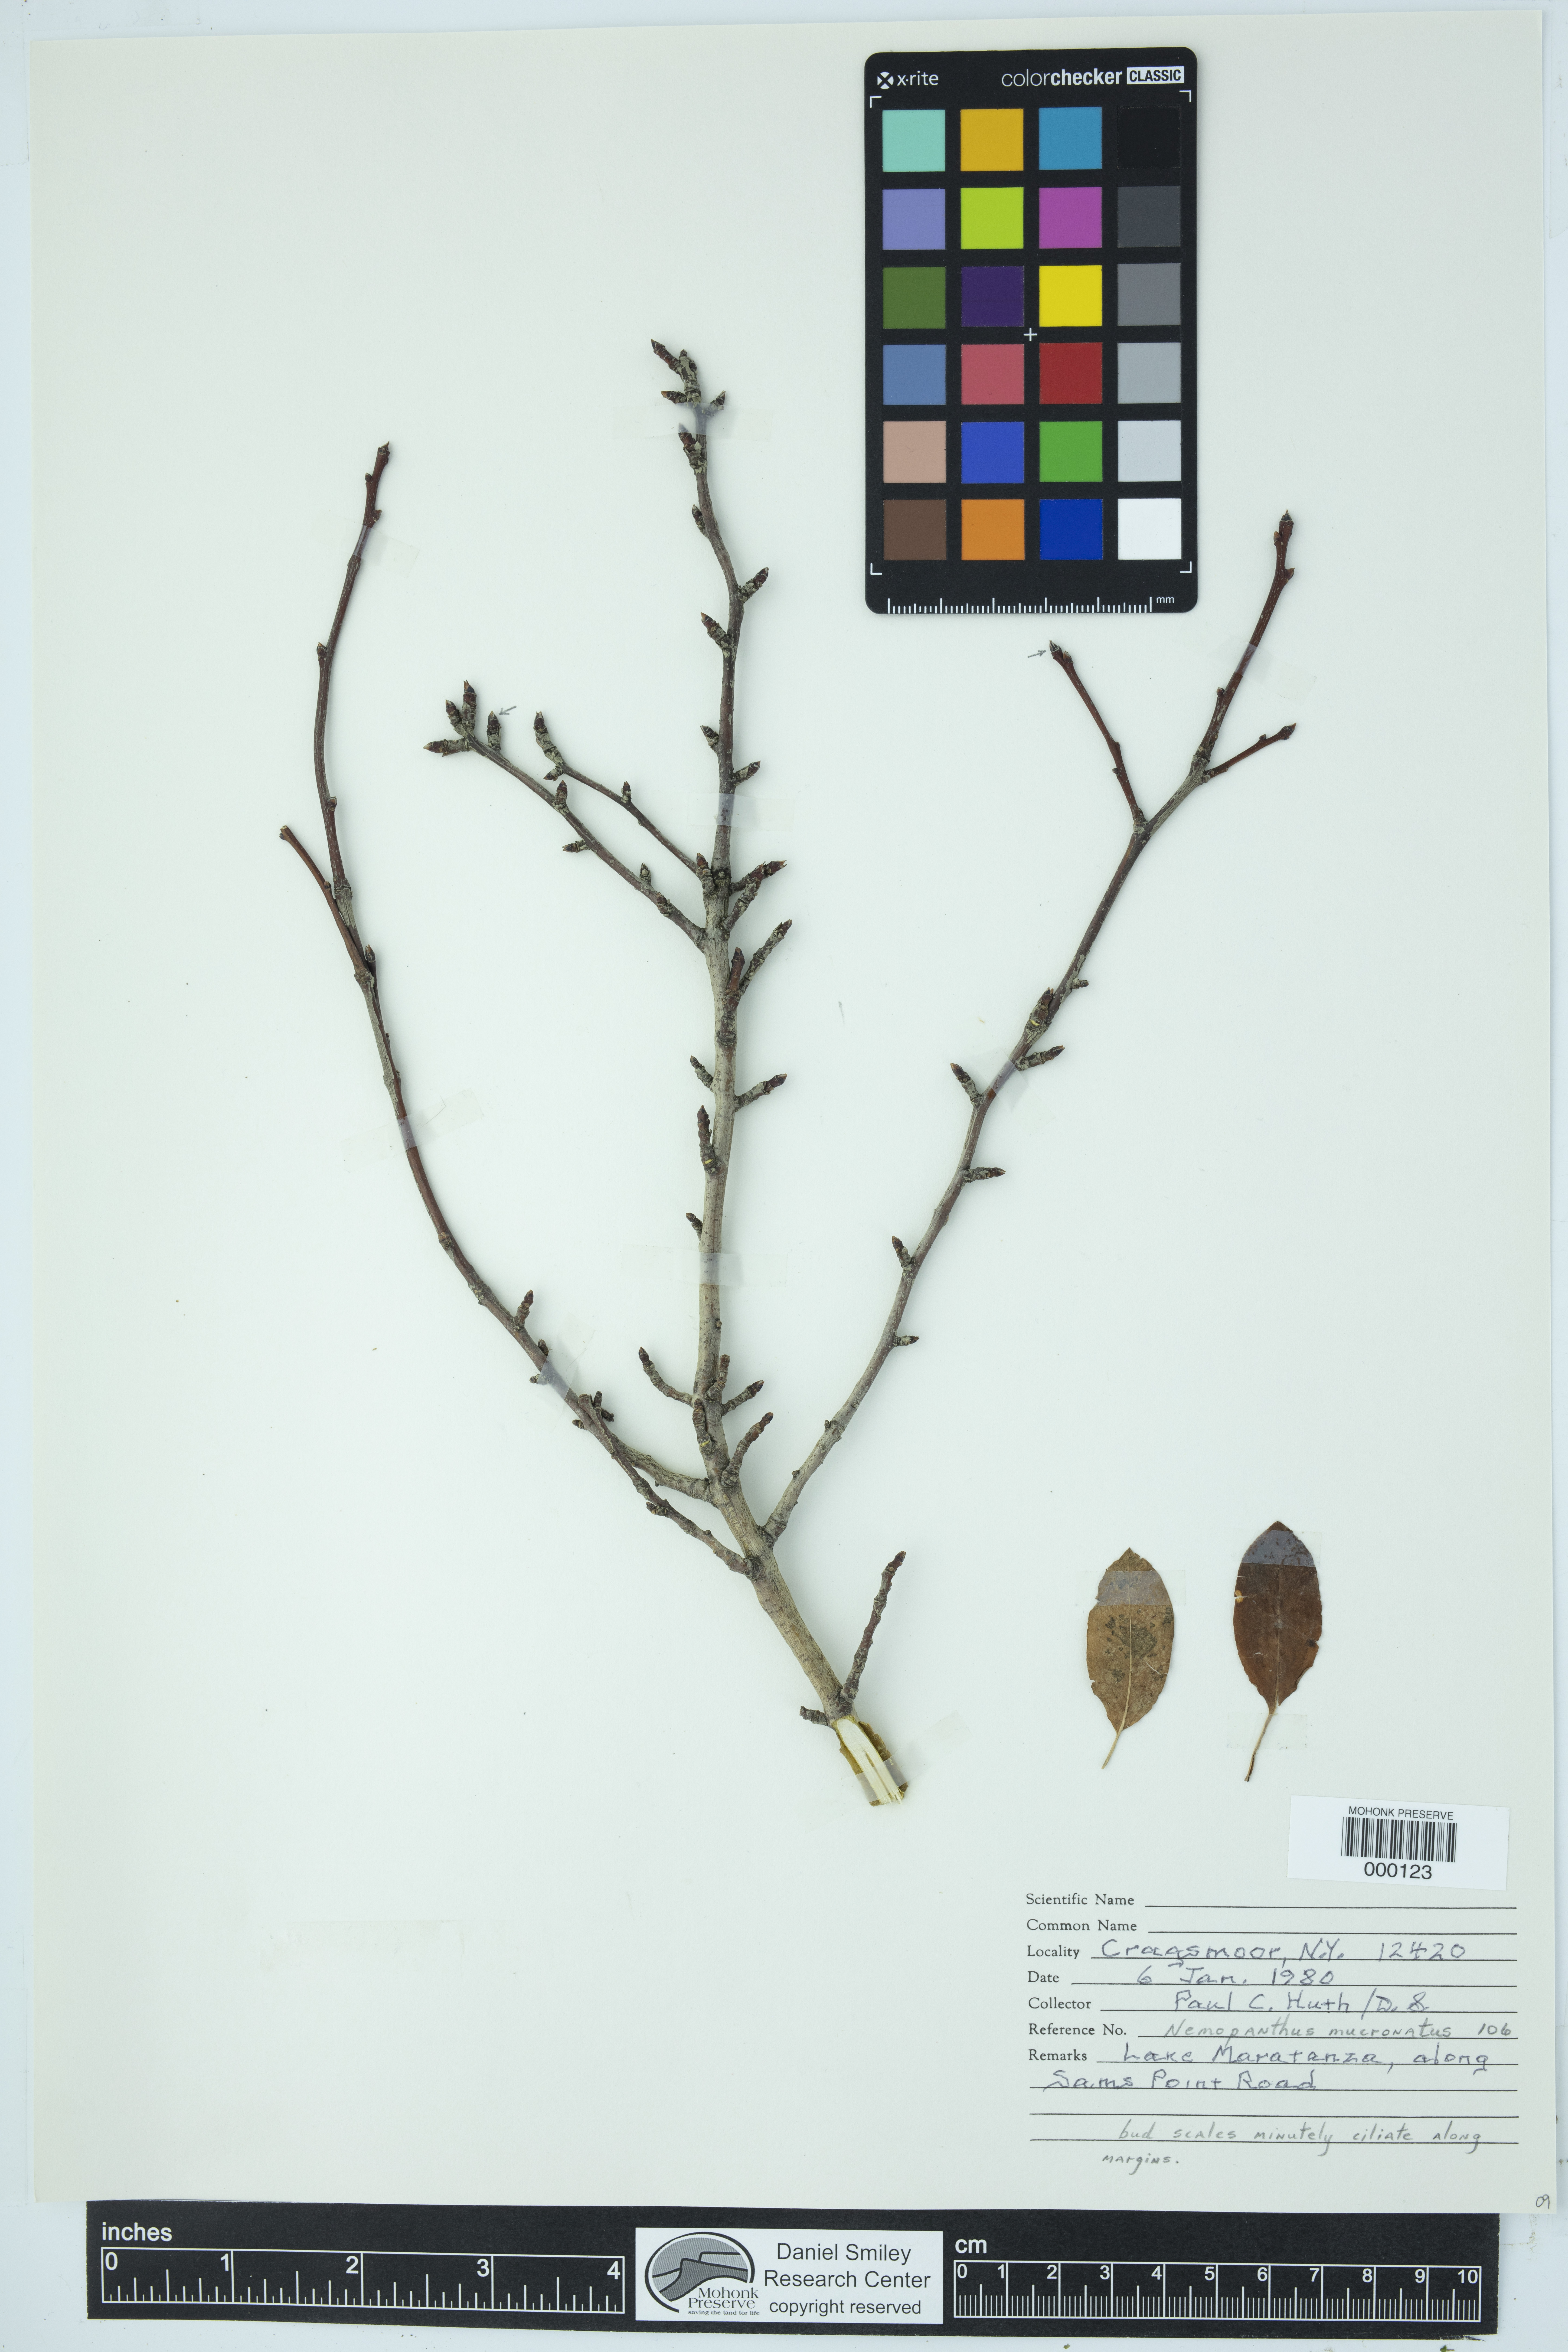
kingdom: Plantae
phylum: Tracheophyta
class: Magnoliopsida
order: Aquifoliales
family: Aquifoliaceae
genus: Ilex
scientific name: Ilex mucronata
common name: Catberry
